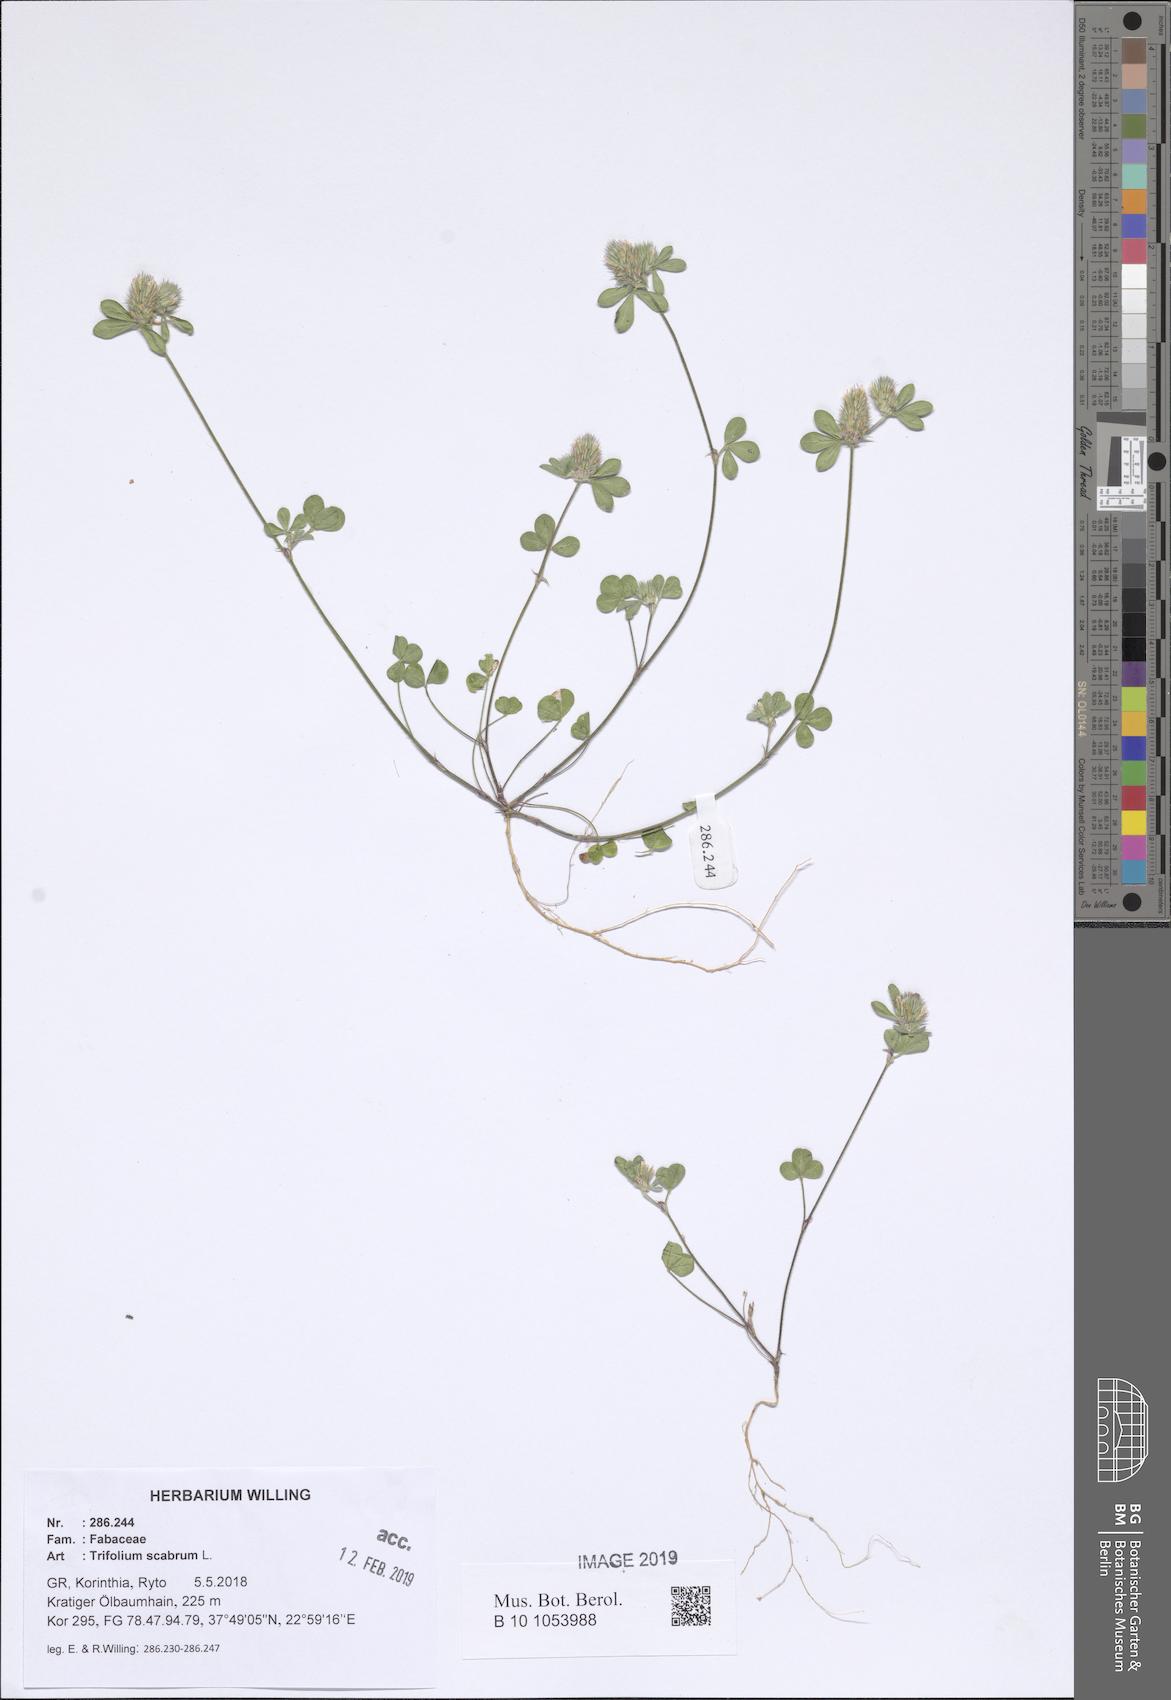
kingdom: Plantae
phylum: Tracheophyta
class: Magnoliopsida
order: Fabales
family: Fabaceae
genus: Trifolium
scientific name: Trifolium scabrum
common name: Rough clover
